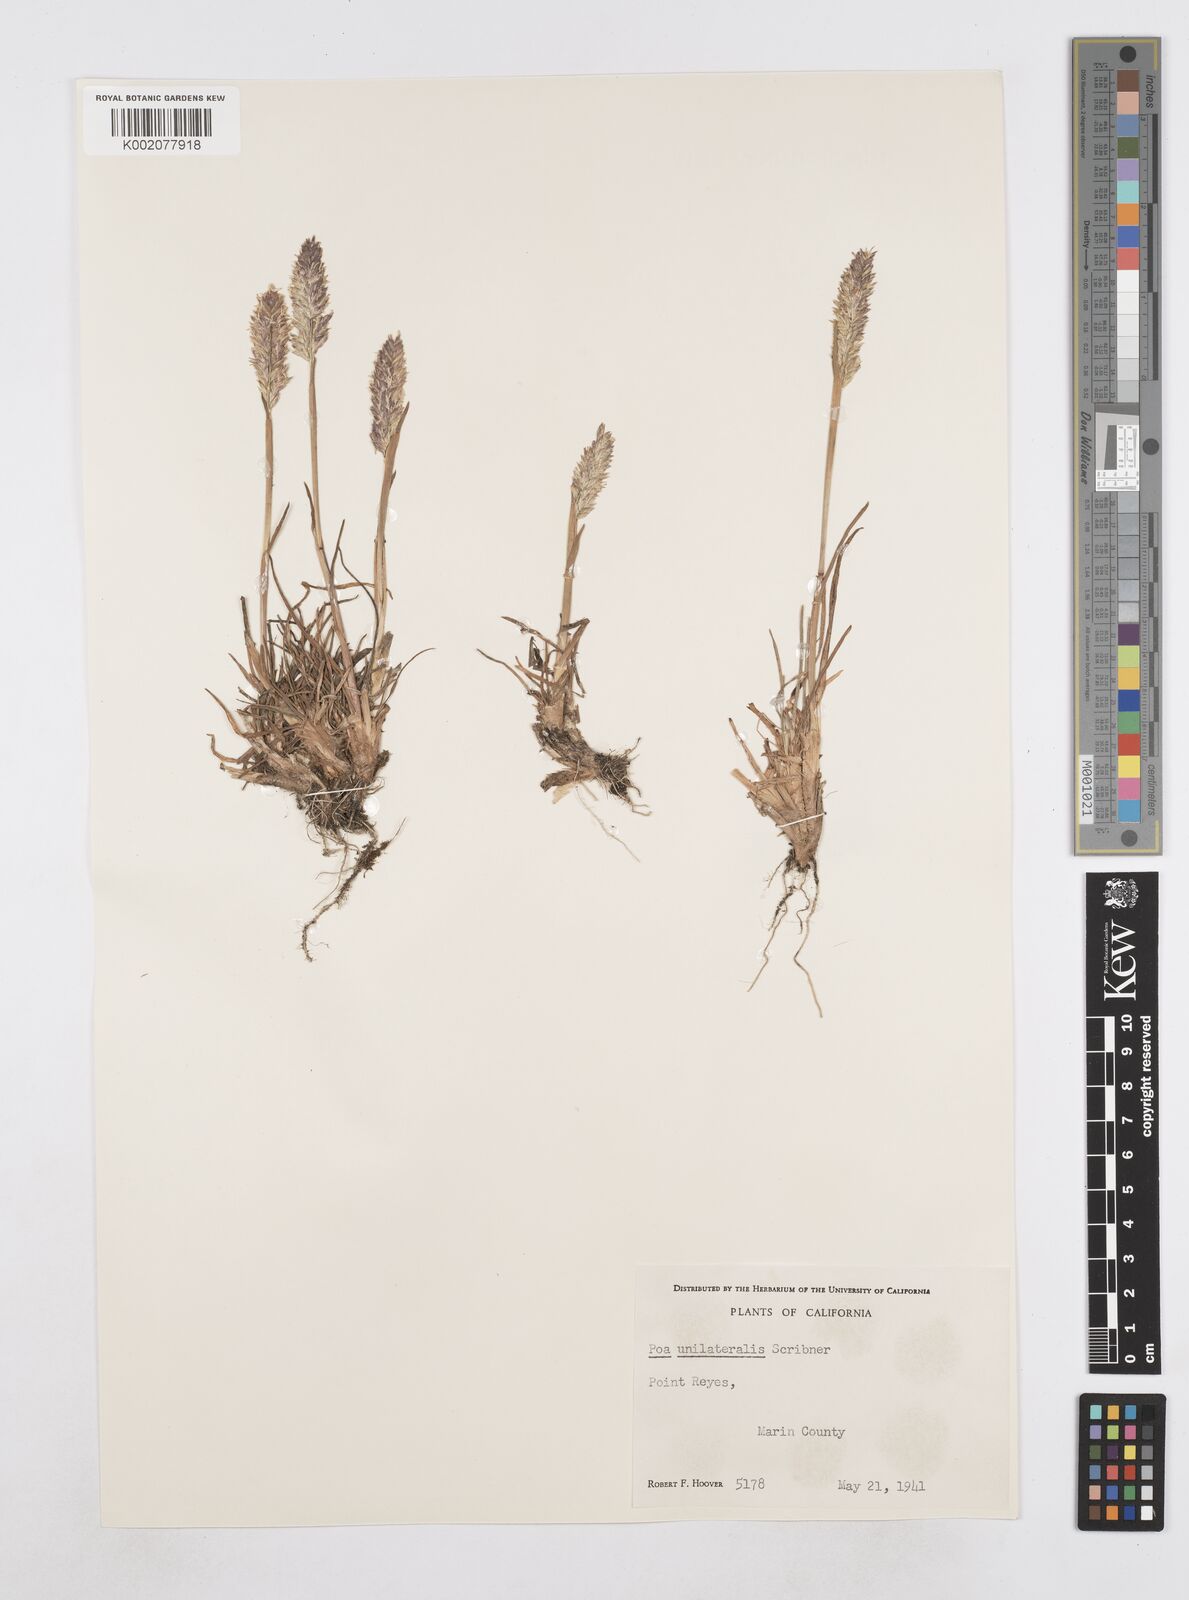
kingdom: Plantae
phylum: Tracheophyta
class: Liliopsida
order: Poales
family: Poaceae
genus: Poa
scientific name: Poa unilateralis
